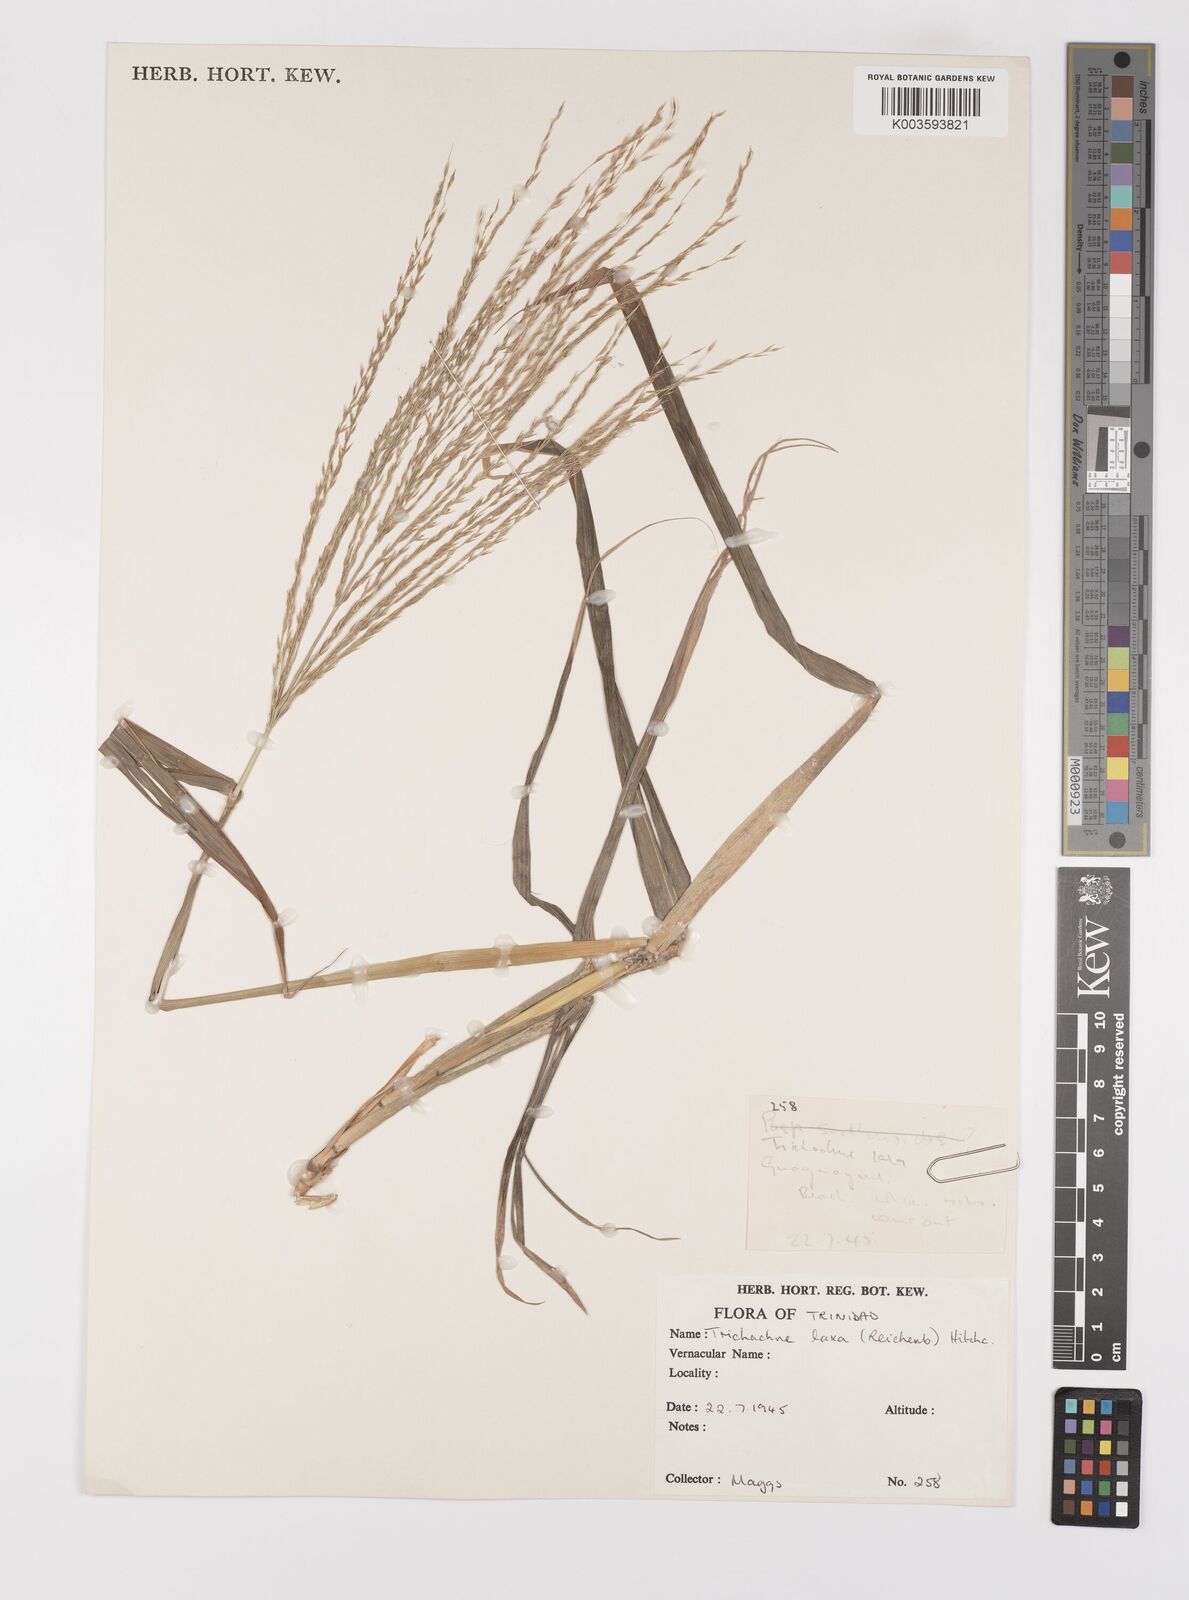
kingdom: Plantae
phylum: Tracheophyta
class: Liliopsida
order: Poales
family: Poaceae
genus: Digitaria
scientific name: Digitaria laxa
